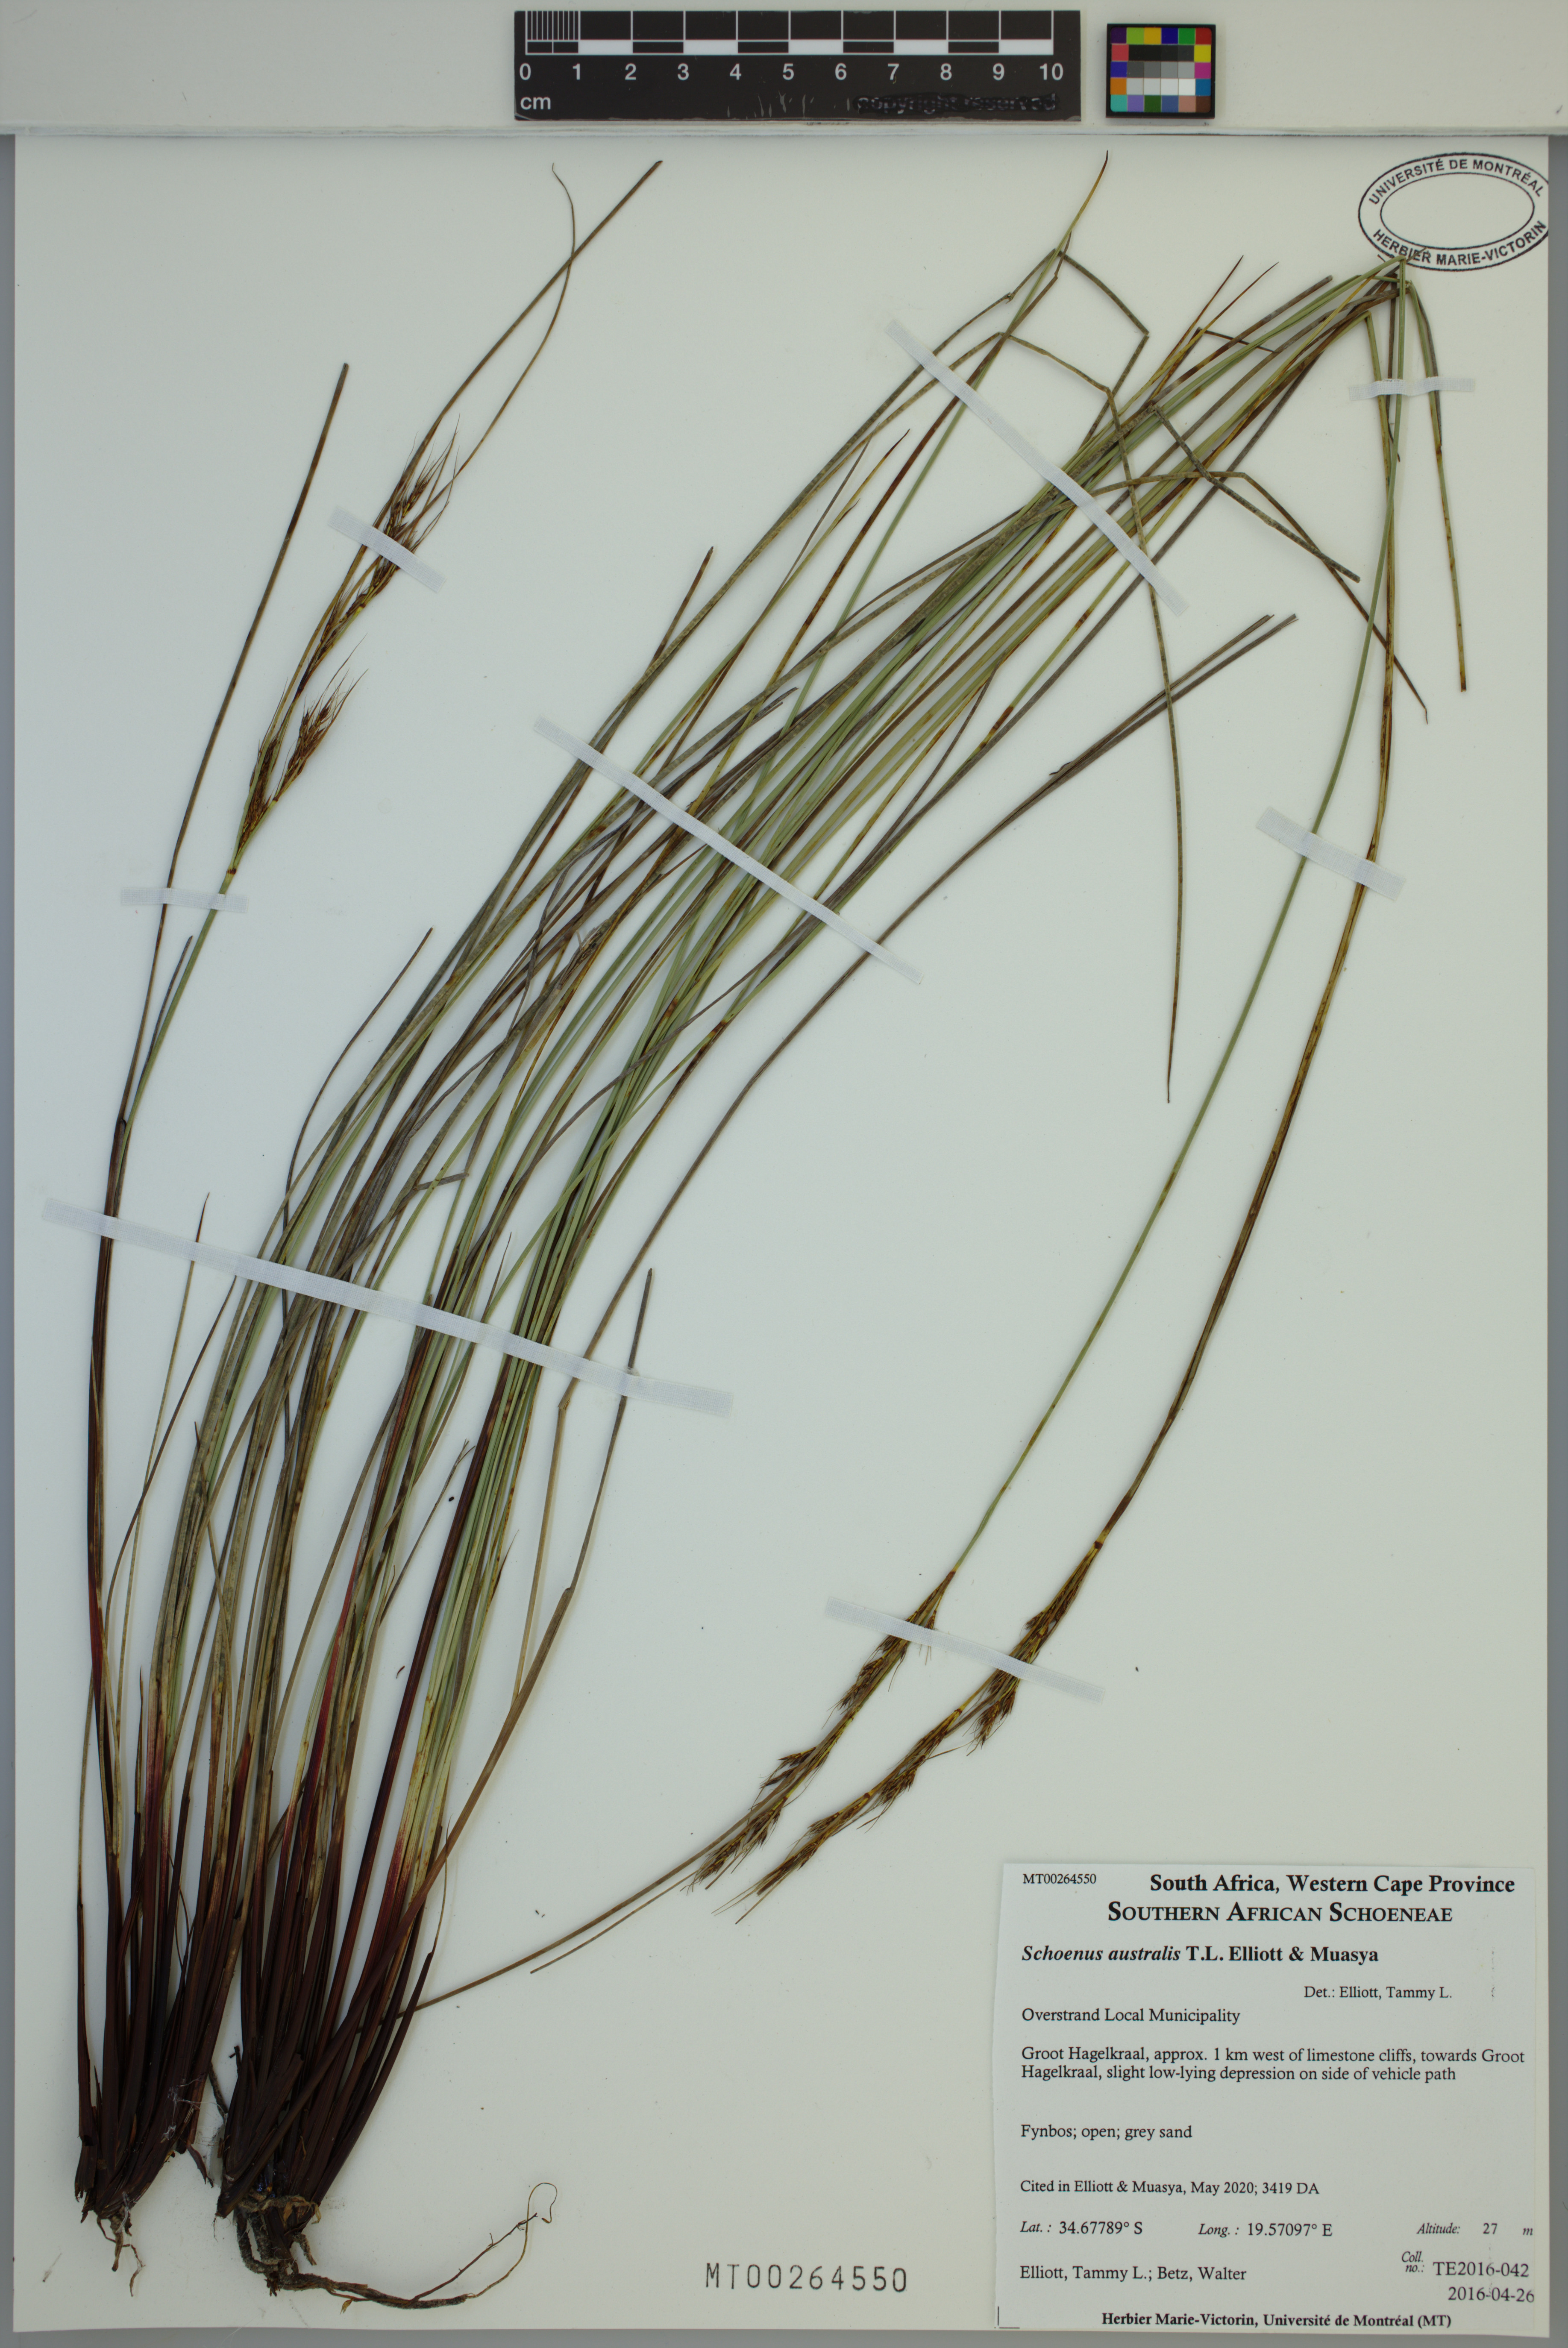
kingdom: Plantae
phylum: Tracheophyta
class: Liliopsida
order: Poales
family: Cyperaceae
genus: Schoenus
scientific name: Schoenus australis
